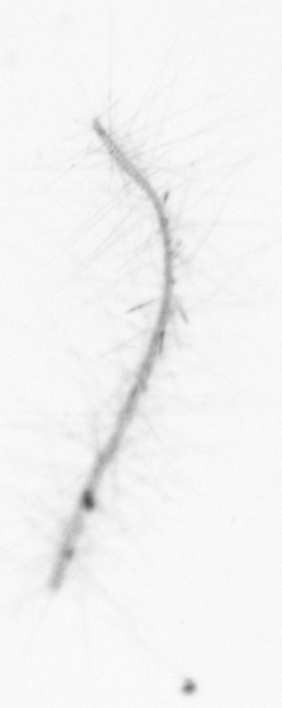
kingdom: Chromista
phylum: Ochrophyta
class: Bacillariophyceae
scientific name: Bacillariophyceae
